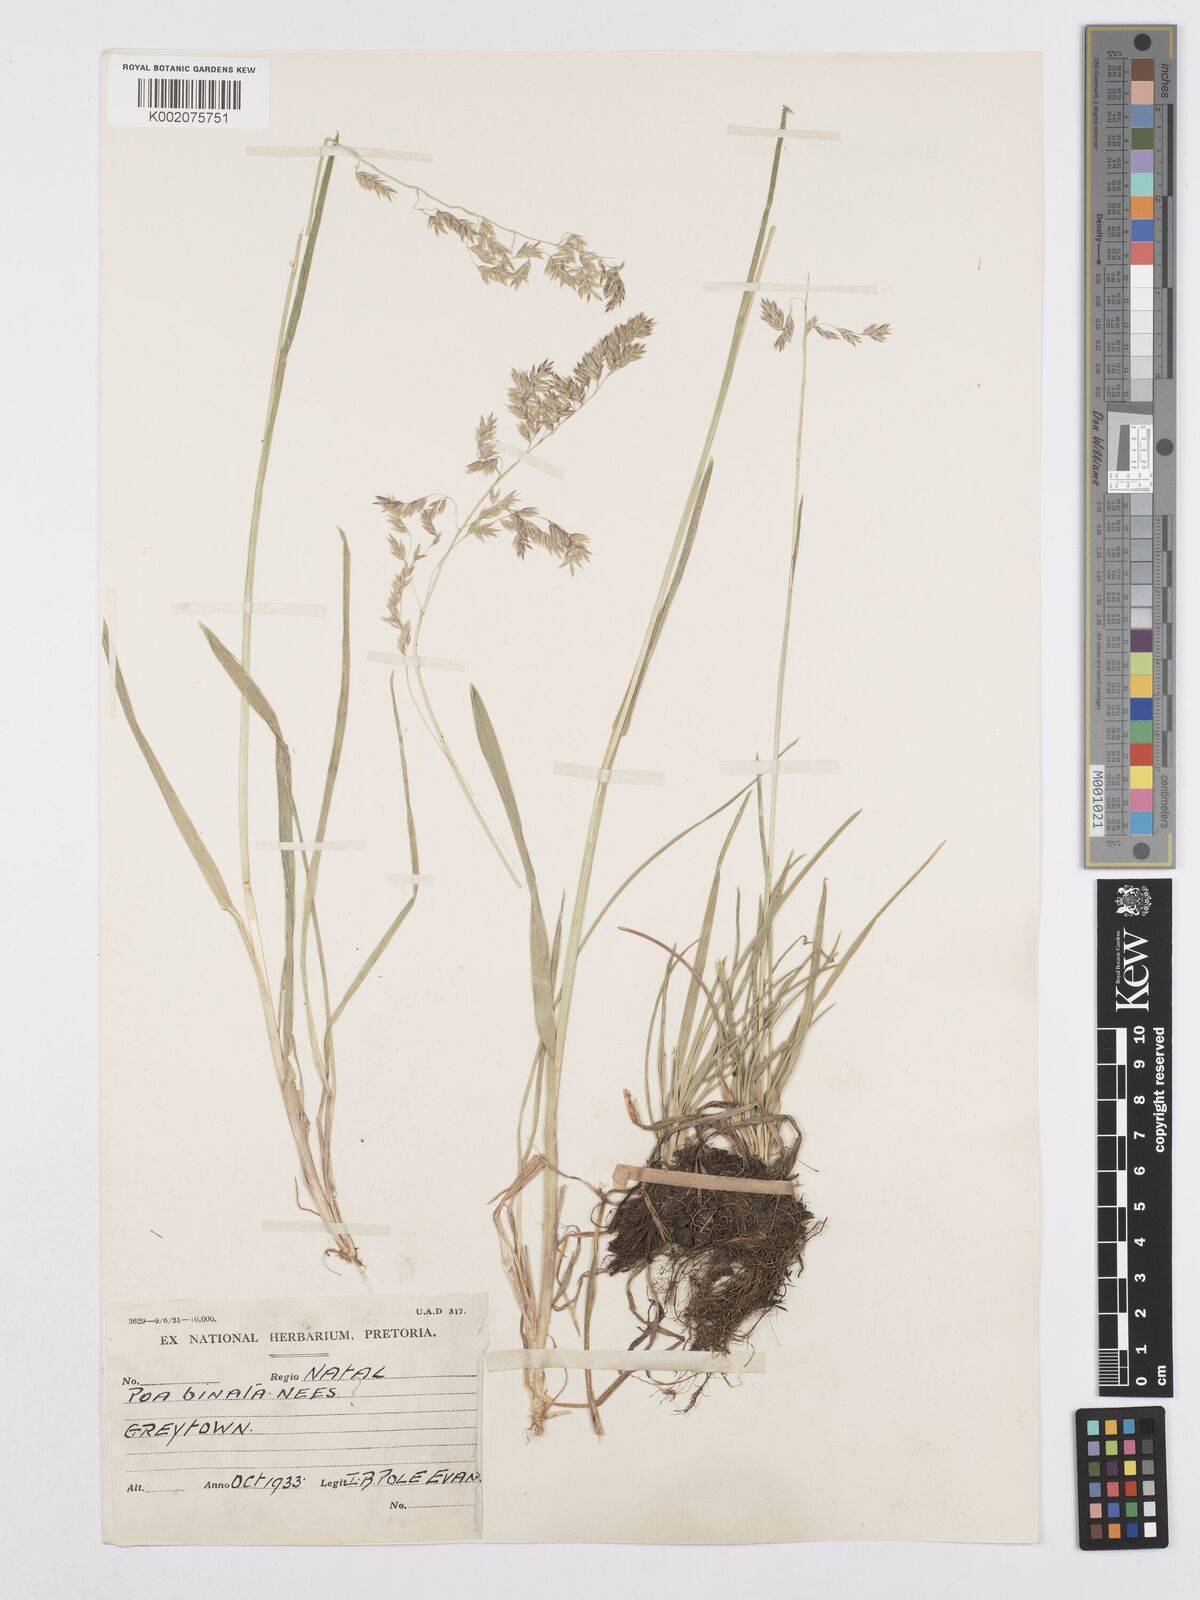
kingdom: Plantae
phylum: Tracheophyta
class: Liliopsida
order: Poales
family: Poaceae
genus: Poa
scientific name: Poa binata
